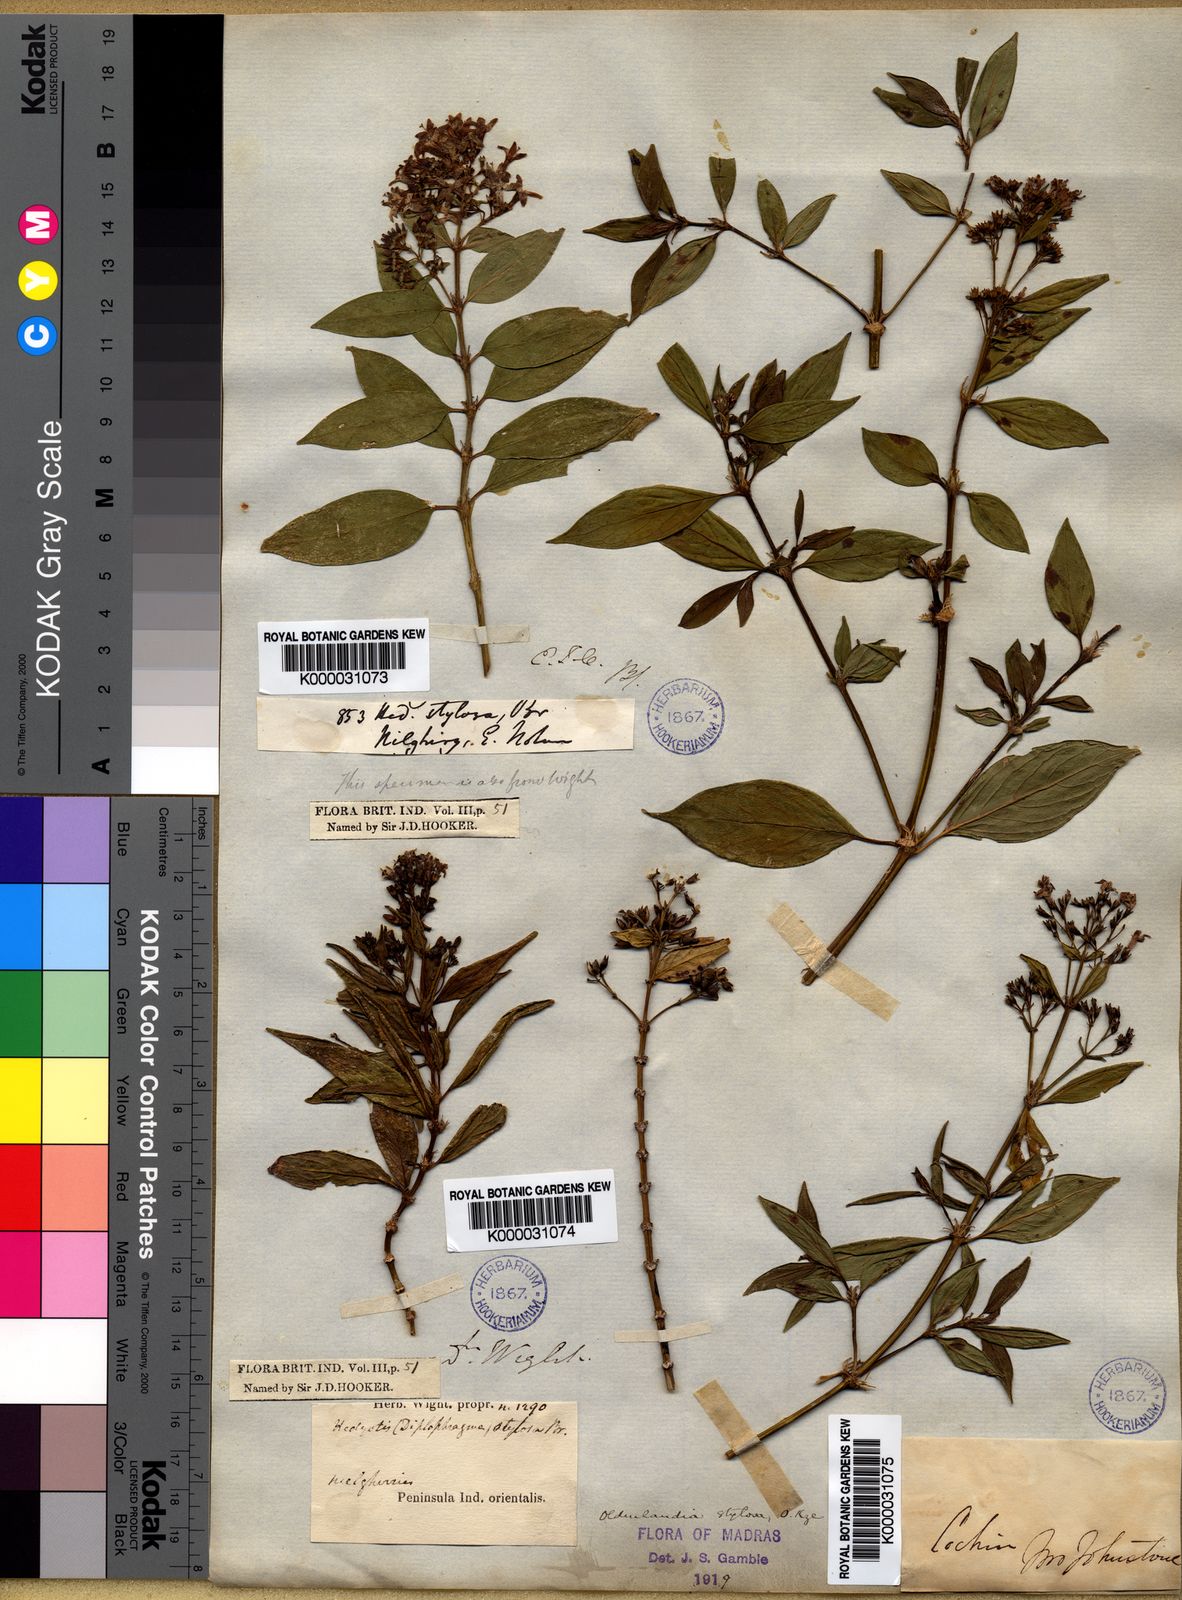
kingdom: Plantae
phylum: Tracheophyta
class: Magnoliopsida
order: Gentianales
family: Rubiaceae
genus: Hedyotis
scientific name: Hedyotis
